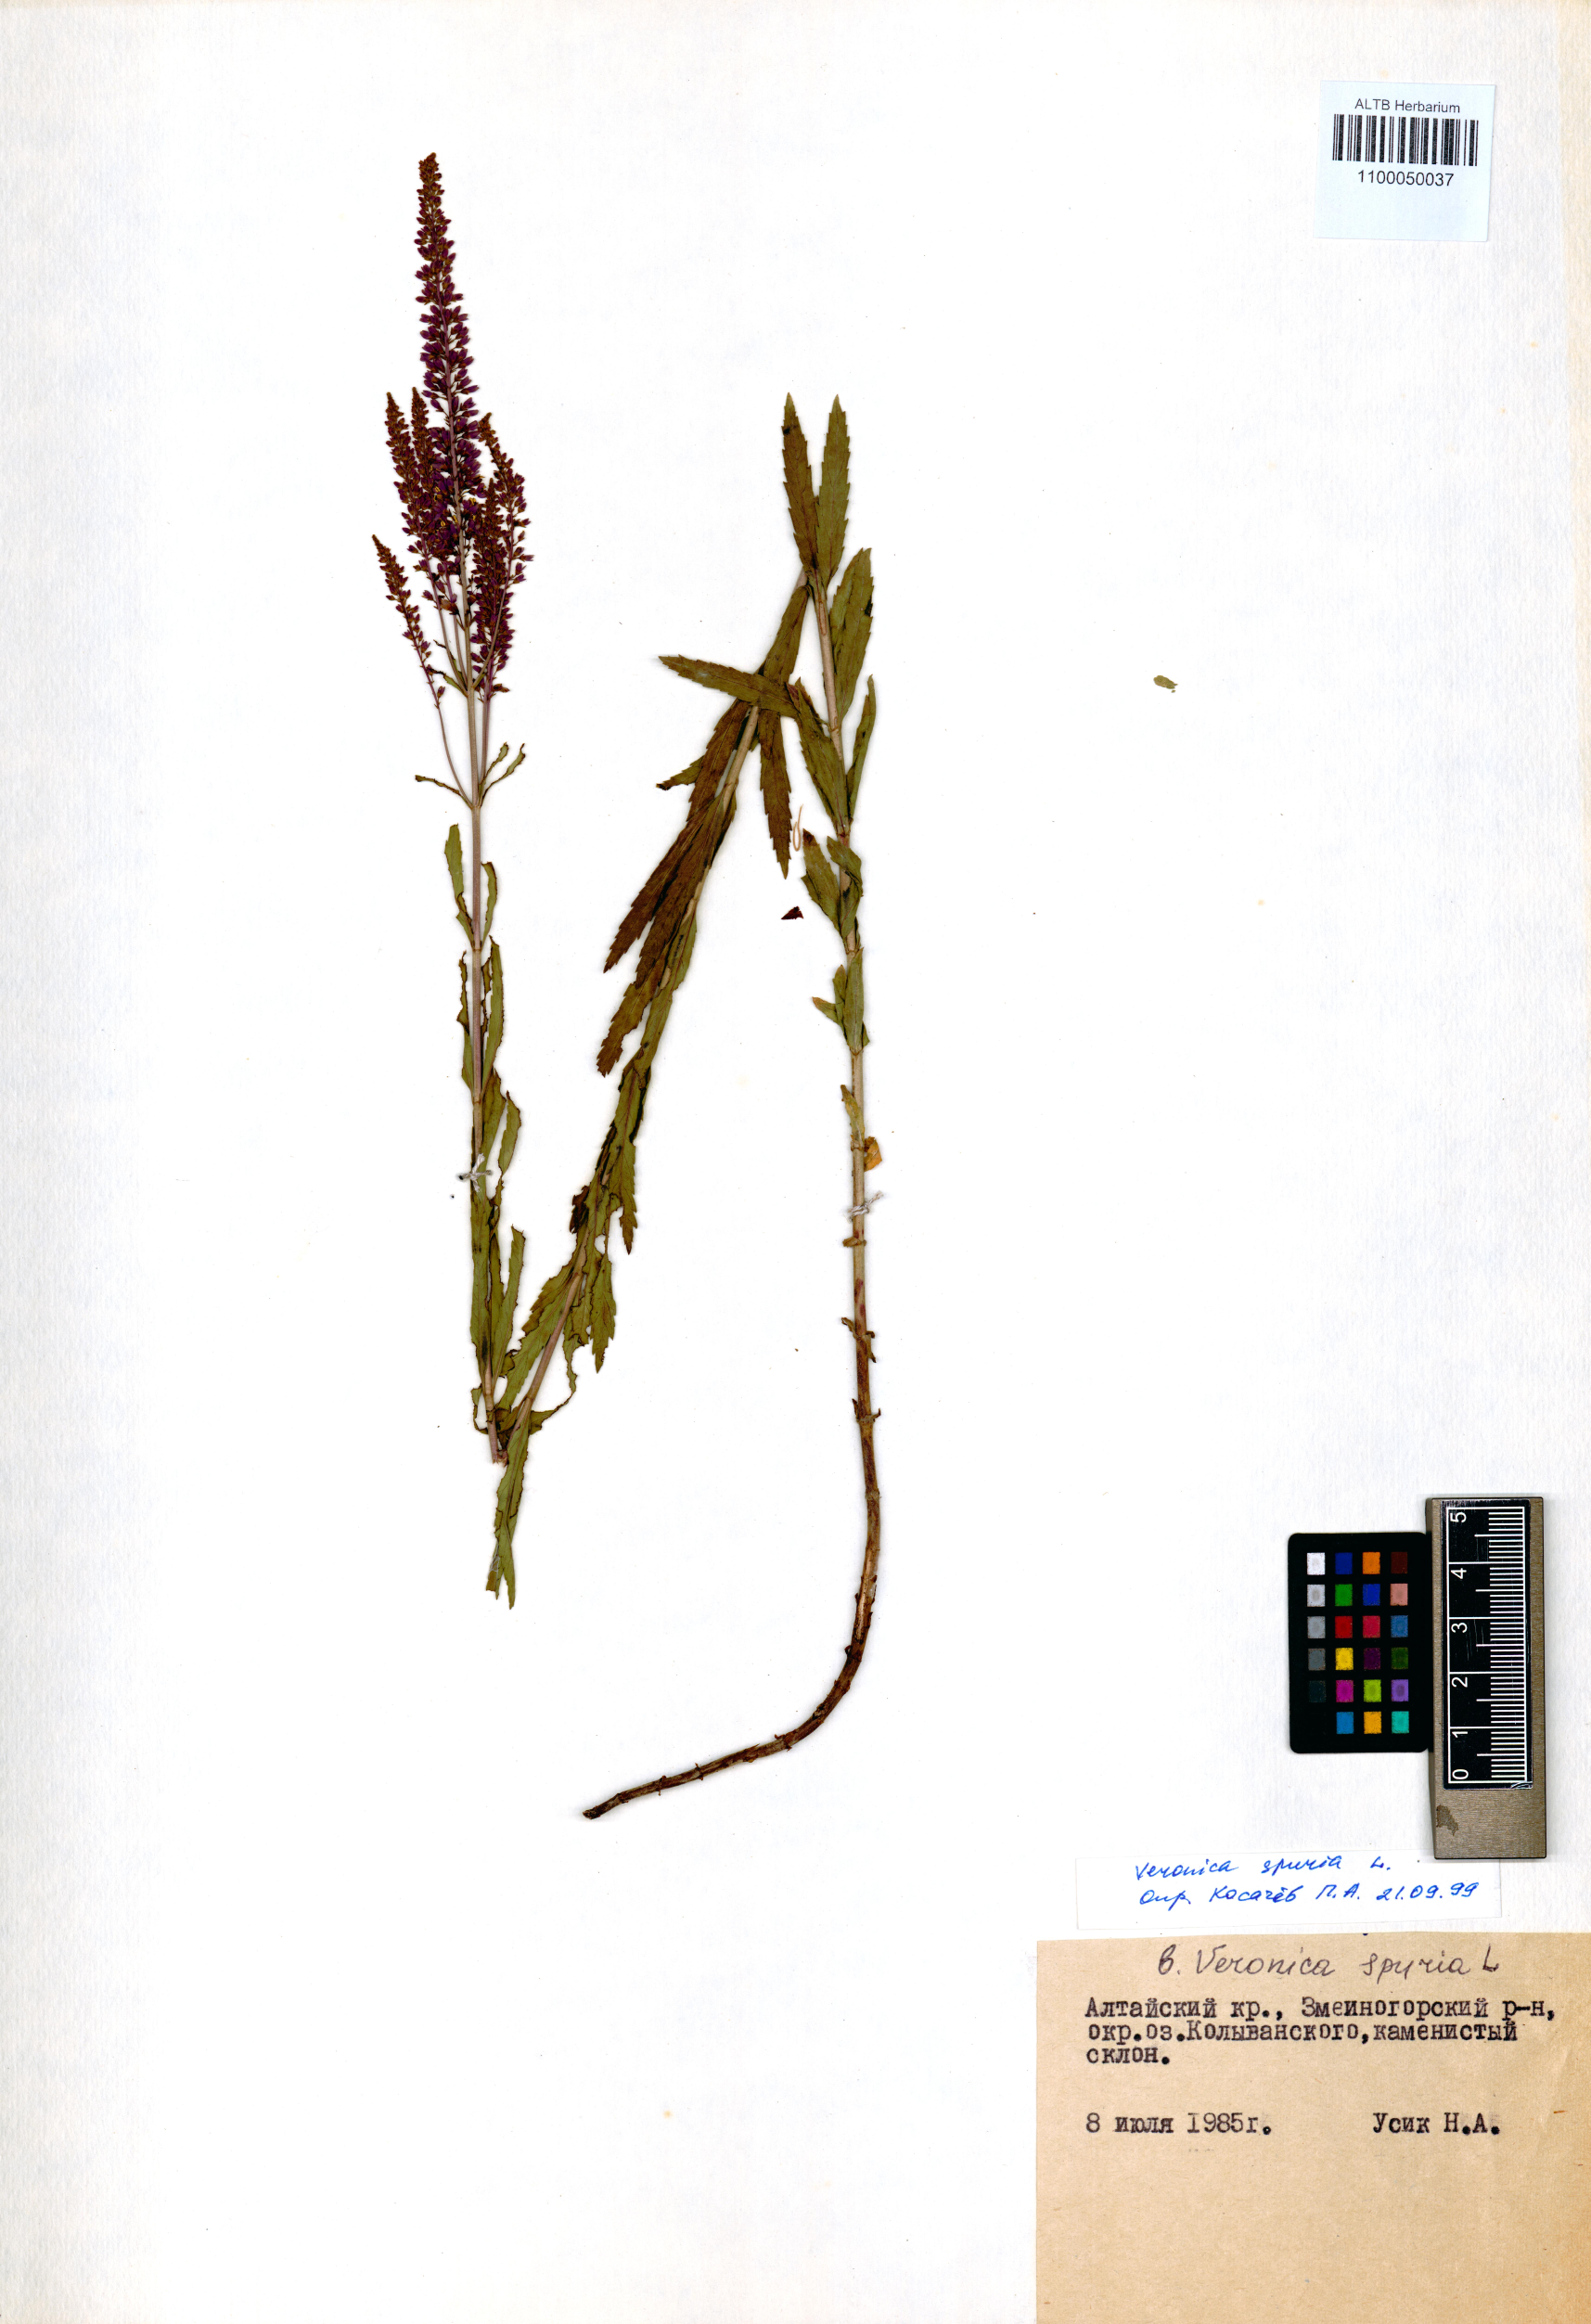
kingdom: Plantae
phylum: Tracheophyta
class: Magnoliopsida
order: Lamiales
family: Plantaginaceae
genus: Veronica
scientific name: Veronica spuria
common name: Bastard speedwell
